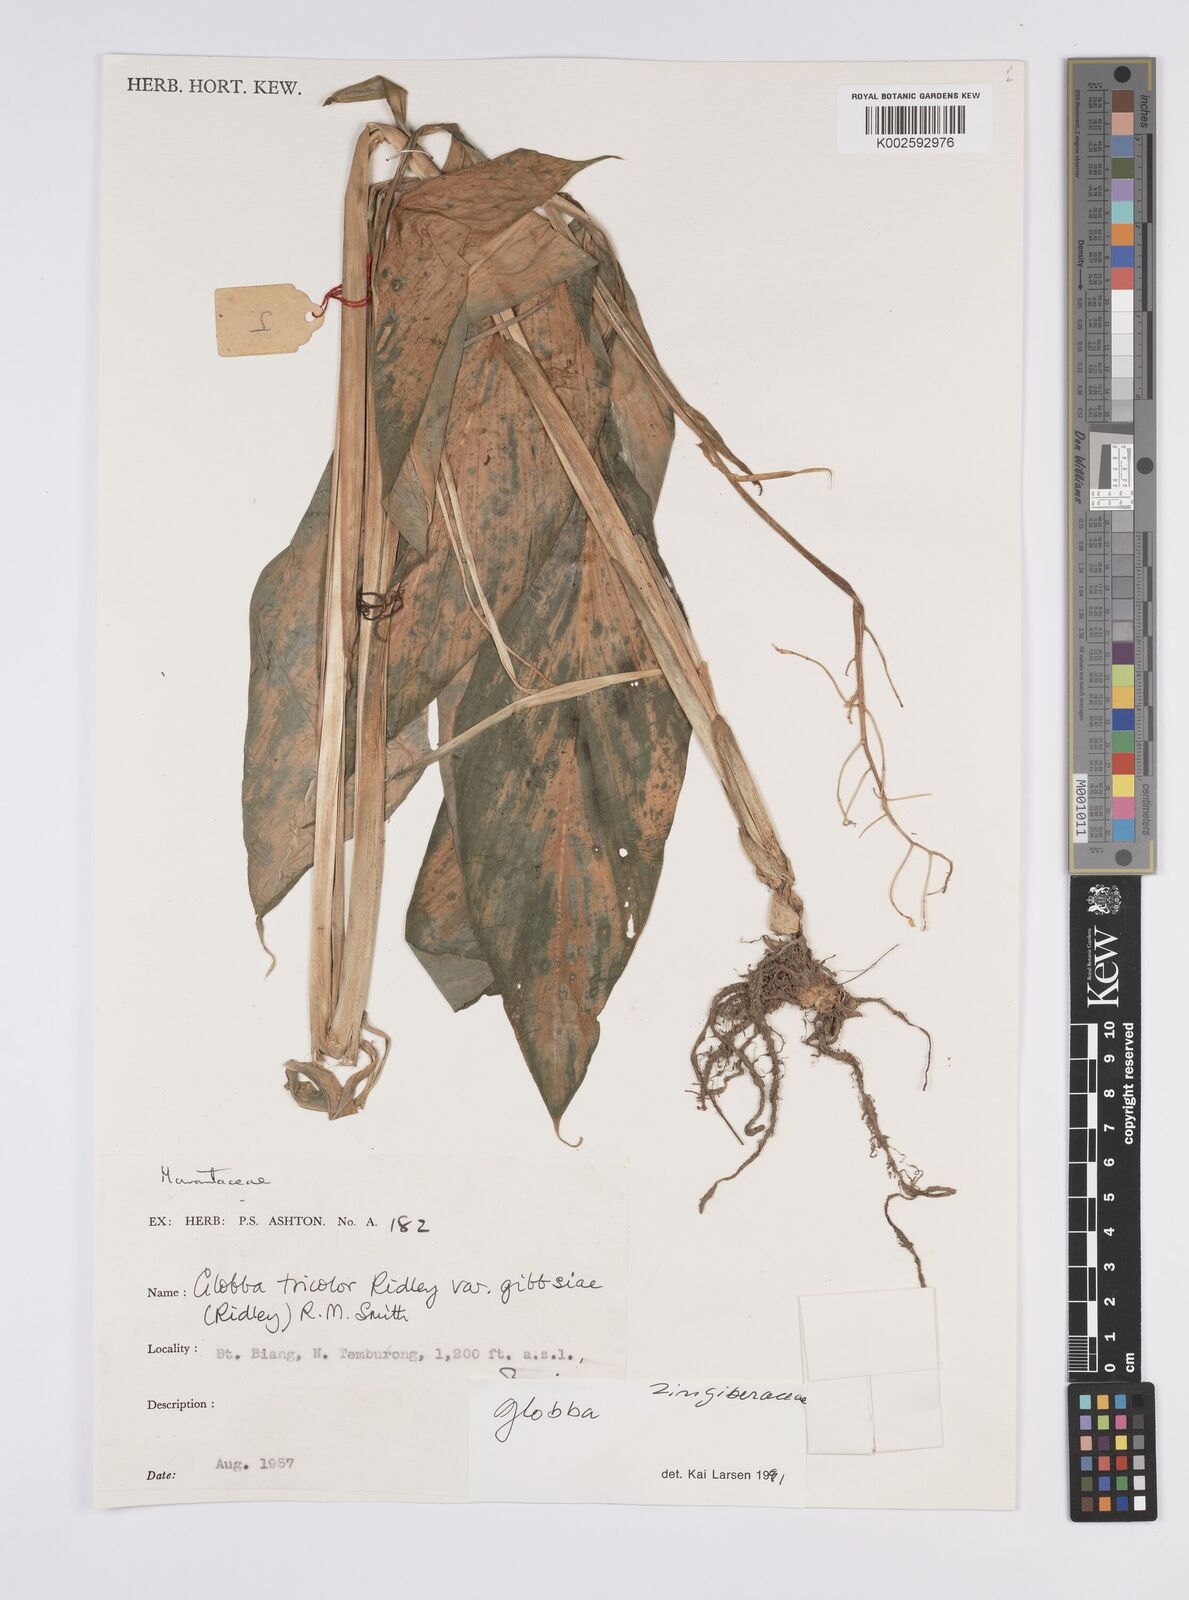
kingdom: Plantae
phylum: Tracheophyta
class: Liliopsida
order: Zingiberales
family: Zingiberaceae
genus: Globba
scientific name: Globba tricolor
